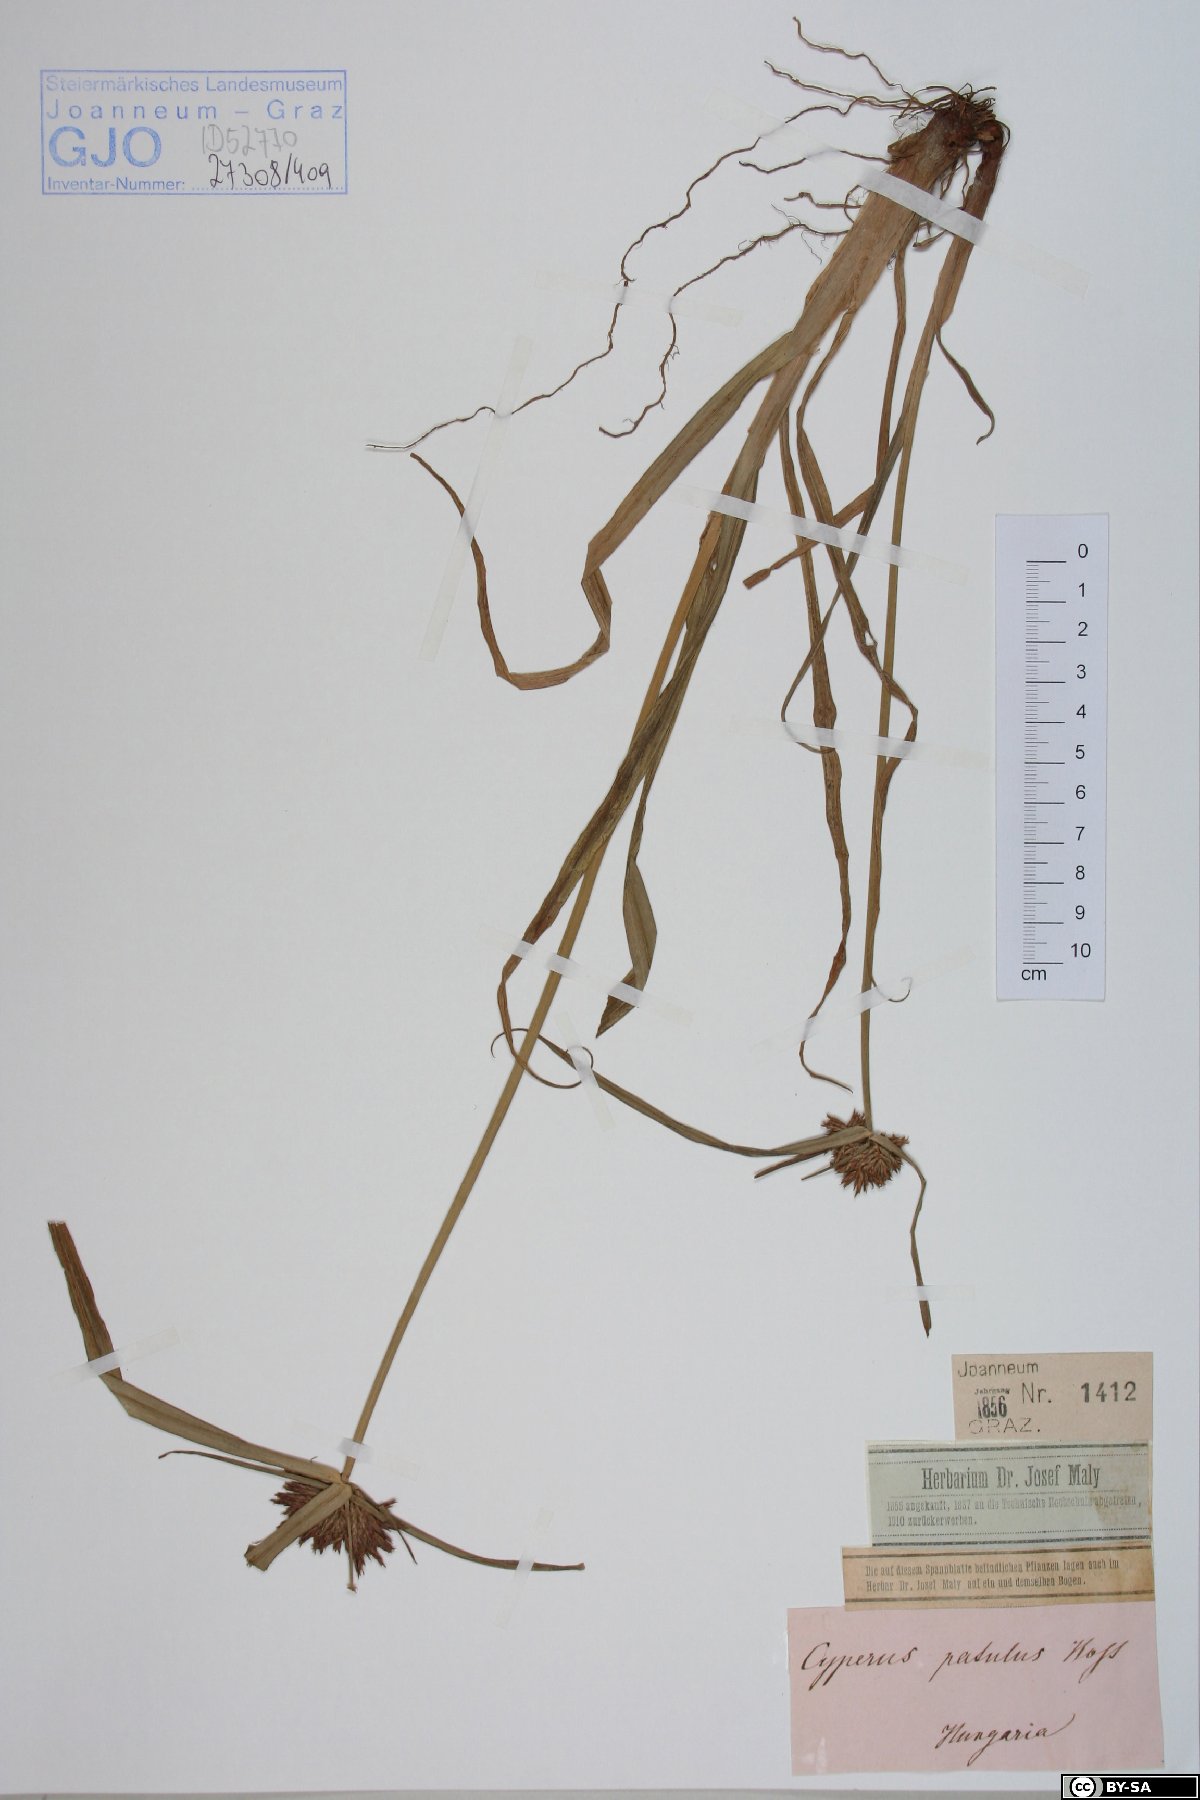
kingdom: Plantae
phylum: Tracheophyta
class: Liliopsida
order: Poales
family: Cyperaceae
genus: Cyperus
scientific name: Cyperus glaber
